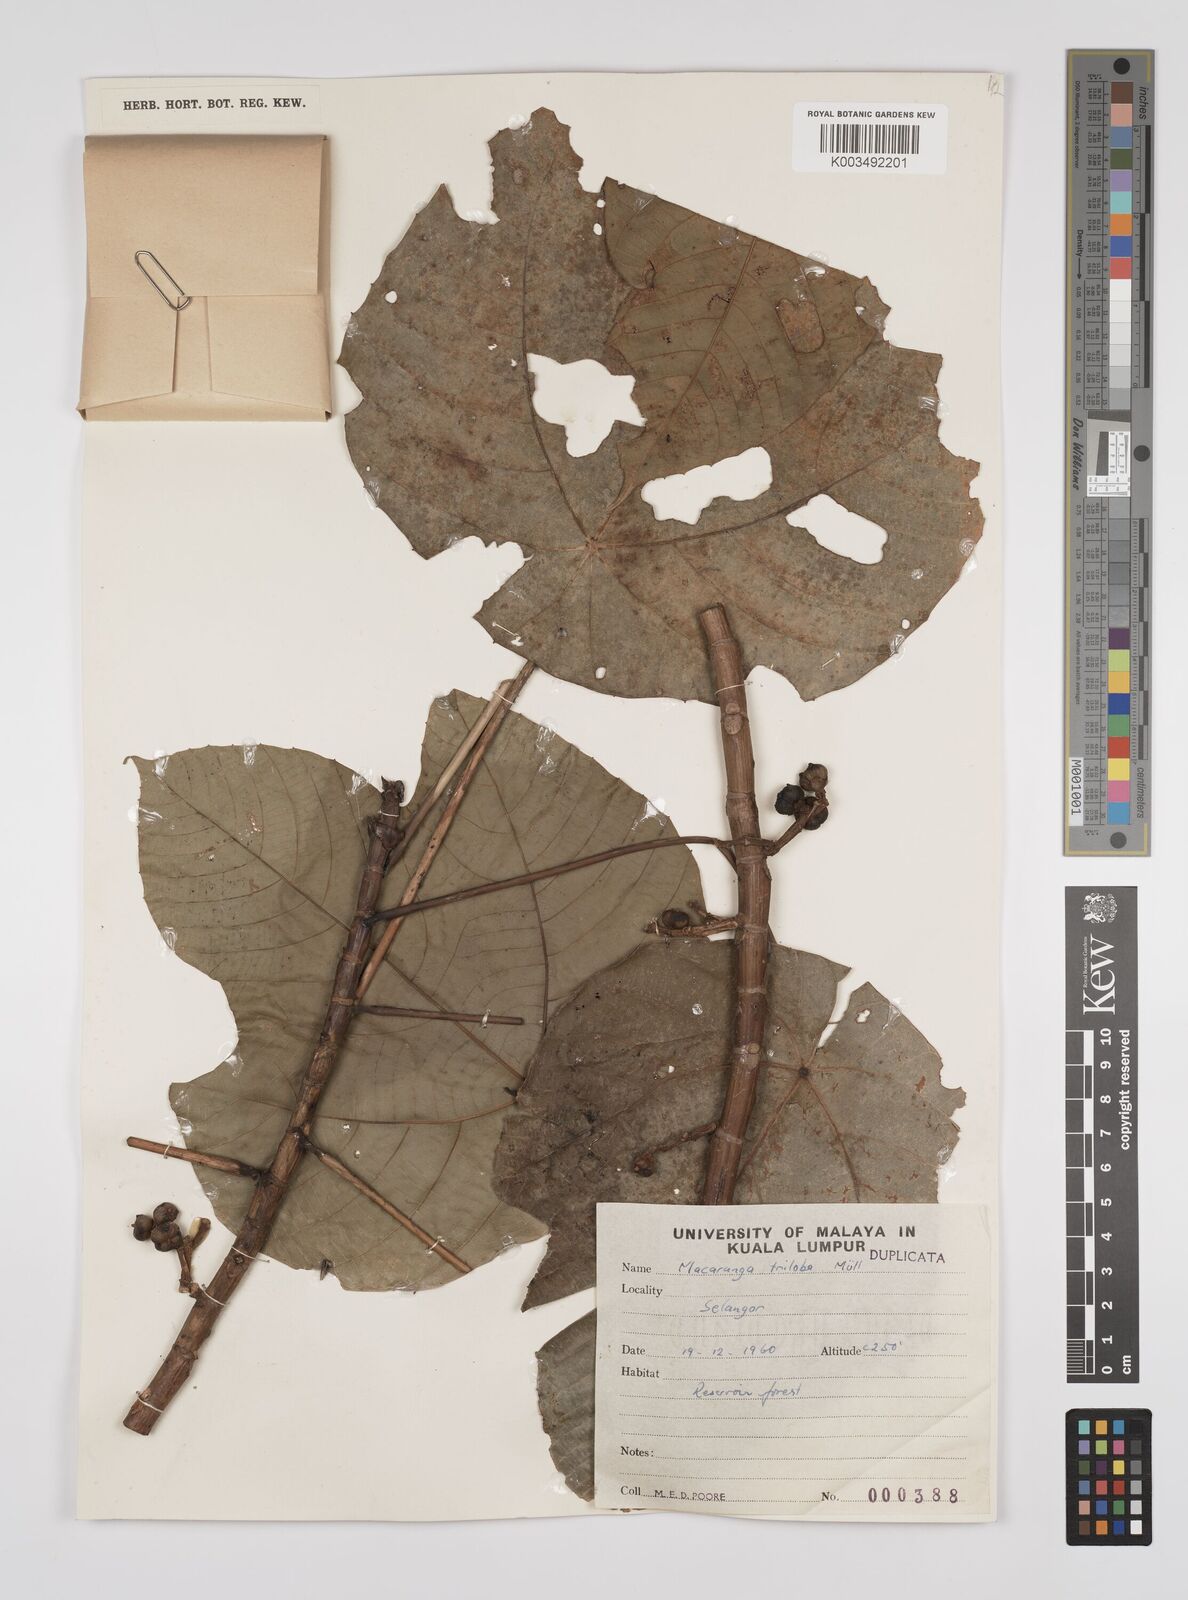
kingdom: Plantae
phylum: Tracheophyta
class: Magnoliopsida
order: Malpighiales
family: Euphorbiaceae
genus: Macaranga
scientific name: Macaranga triloba
